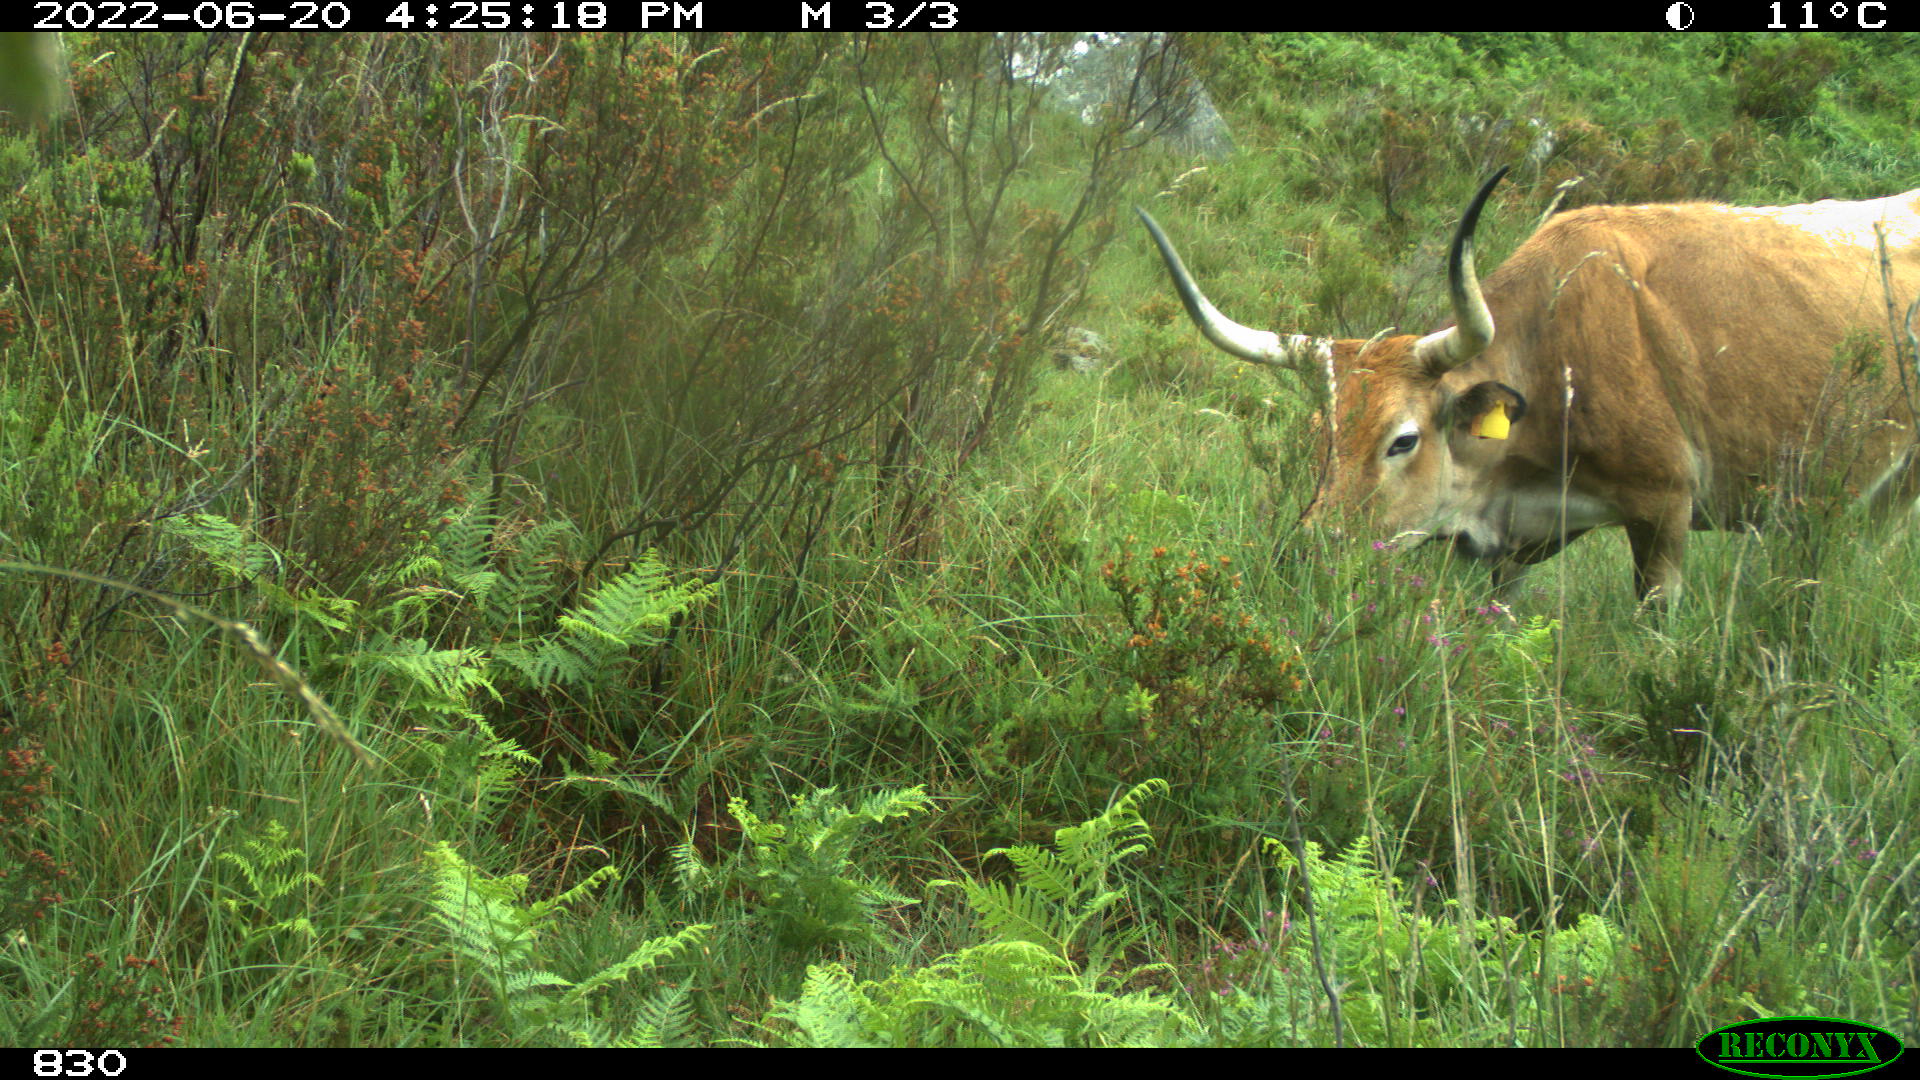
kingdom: Animalia
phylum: Chordata
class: Mammalia
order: Artiodactyla
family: Bovidae
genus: Bos
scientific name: Bos taurus
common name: Domesticated cattle
